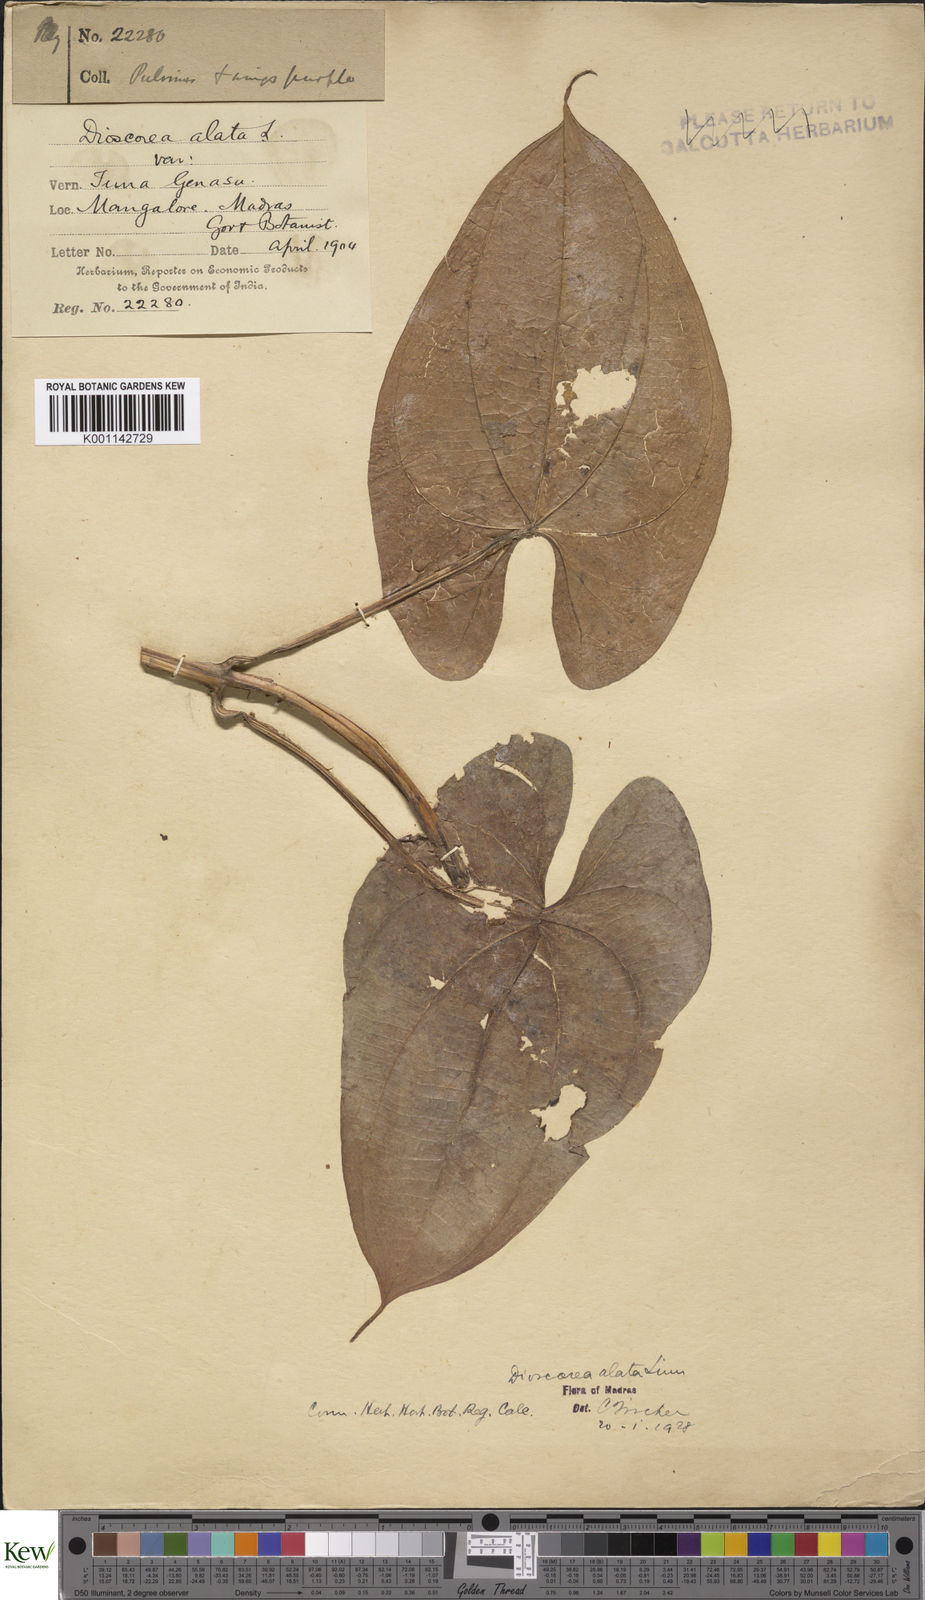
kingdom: Plantae
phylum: Tracheophyta
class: Liliopsida
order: Dioscoreales
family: Dioscoreaceae
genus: Dioscorea
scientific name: Dioscorea
